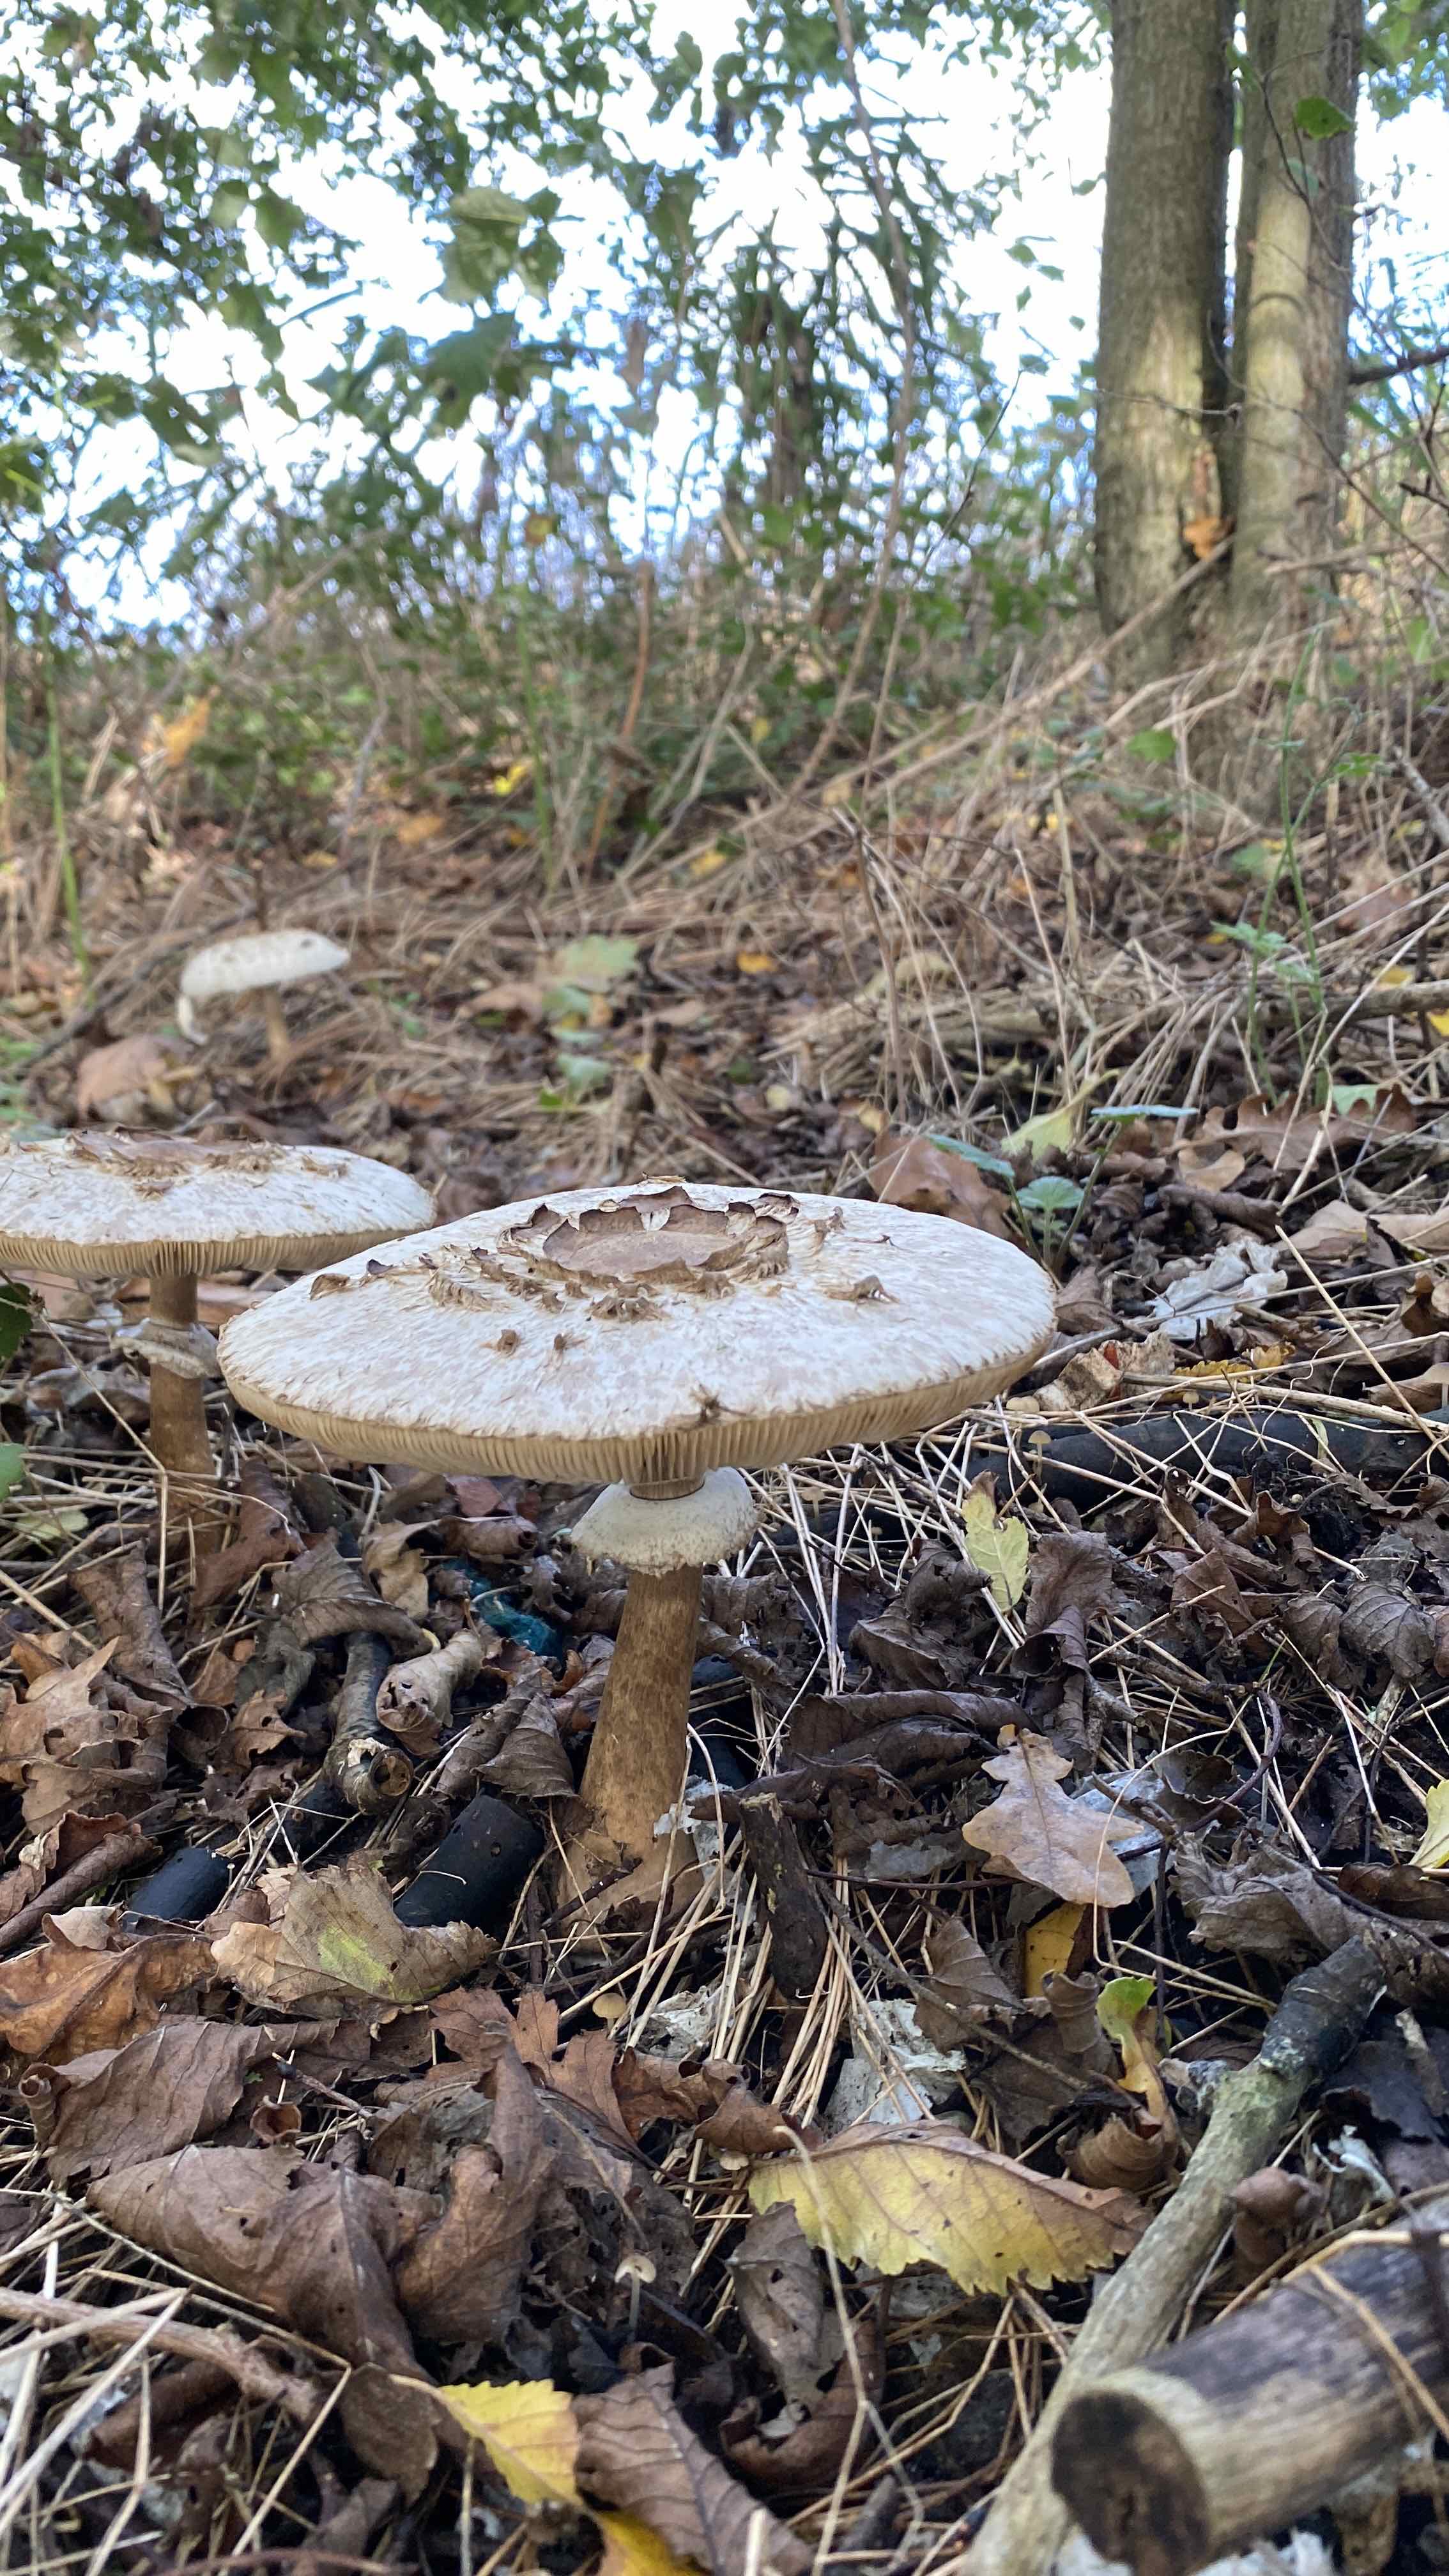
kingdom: Fungi
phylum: Basidiomycota
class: Agaricomycetes
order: Agaricales
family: Agaricaceae
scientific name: Agaricaceae
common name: champignonfamilien
